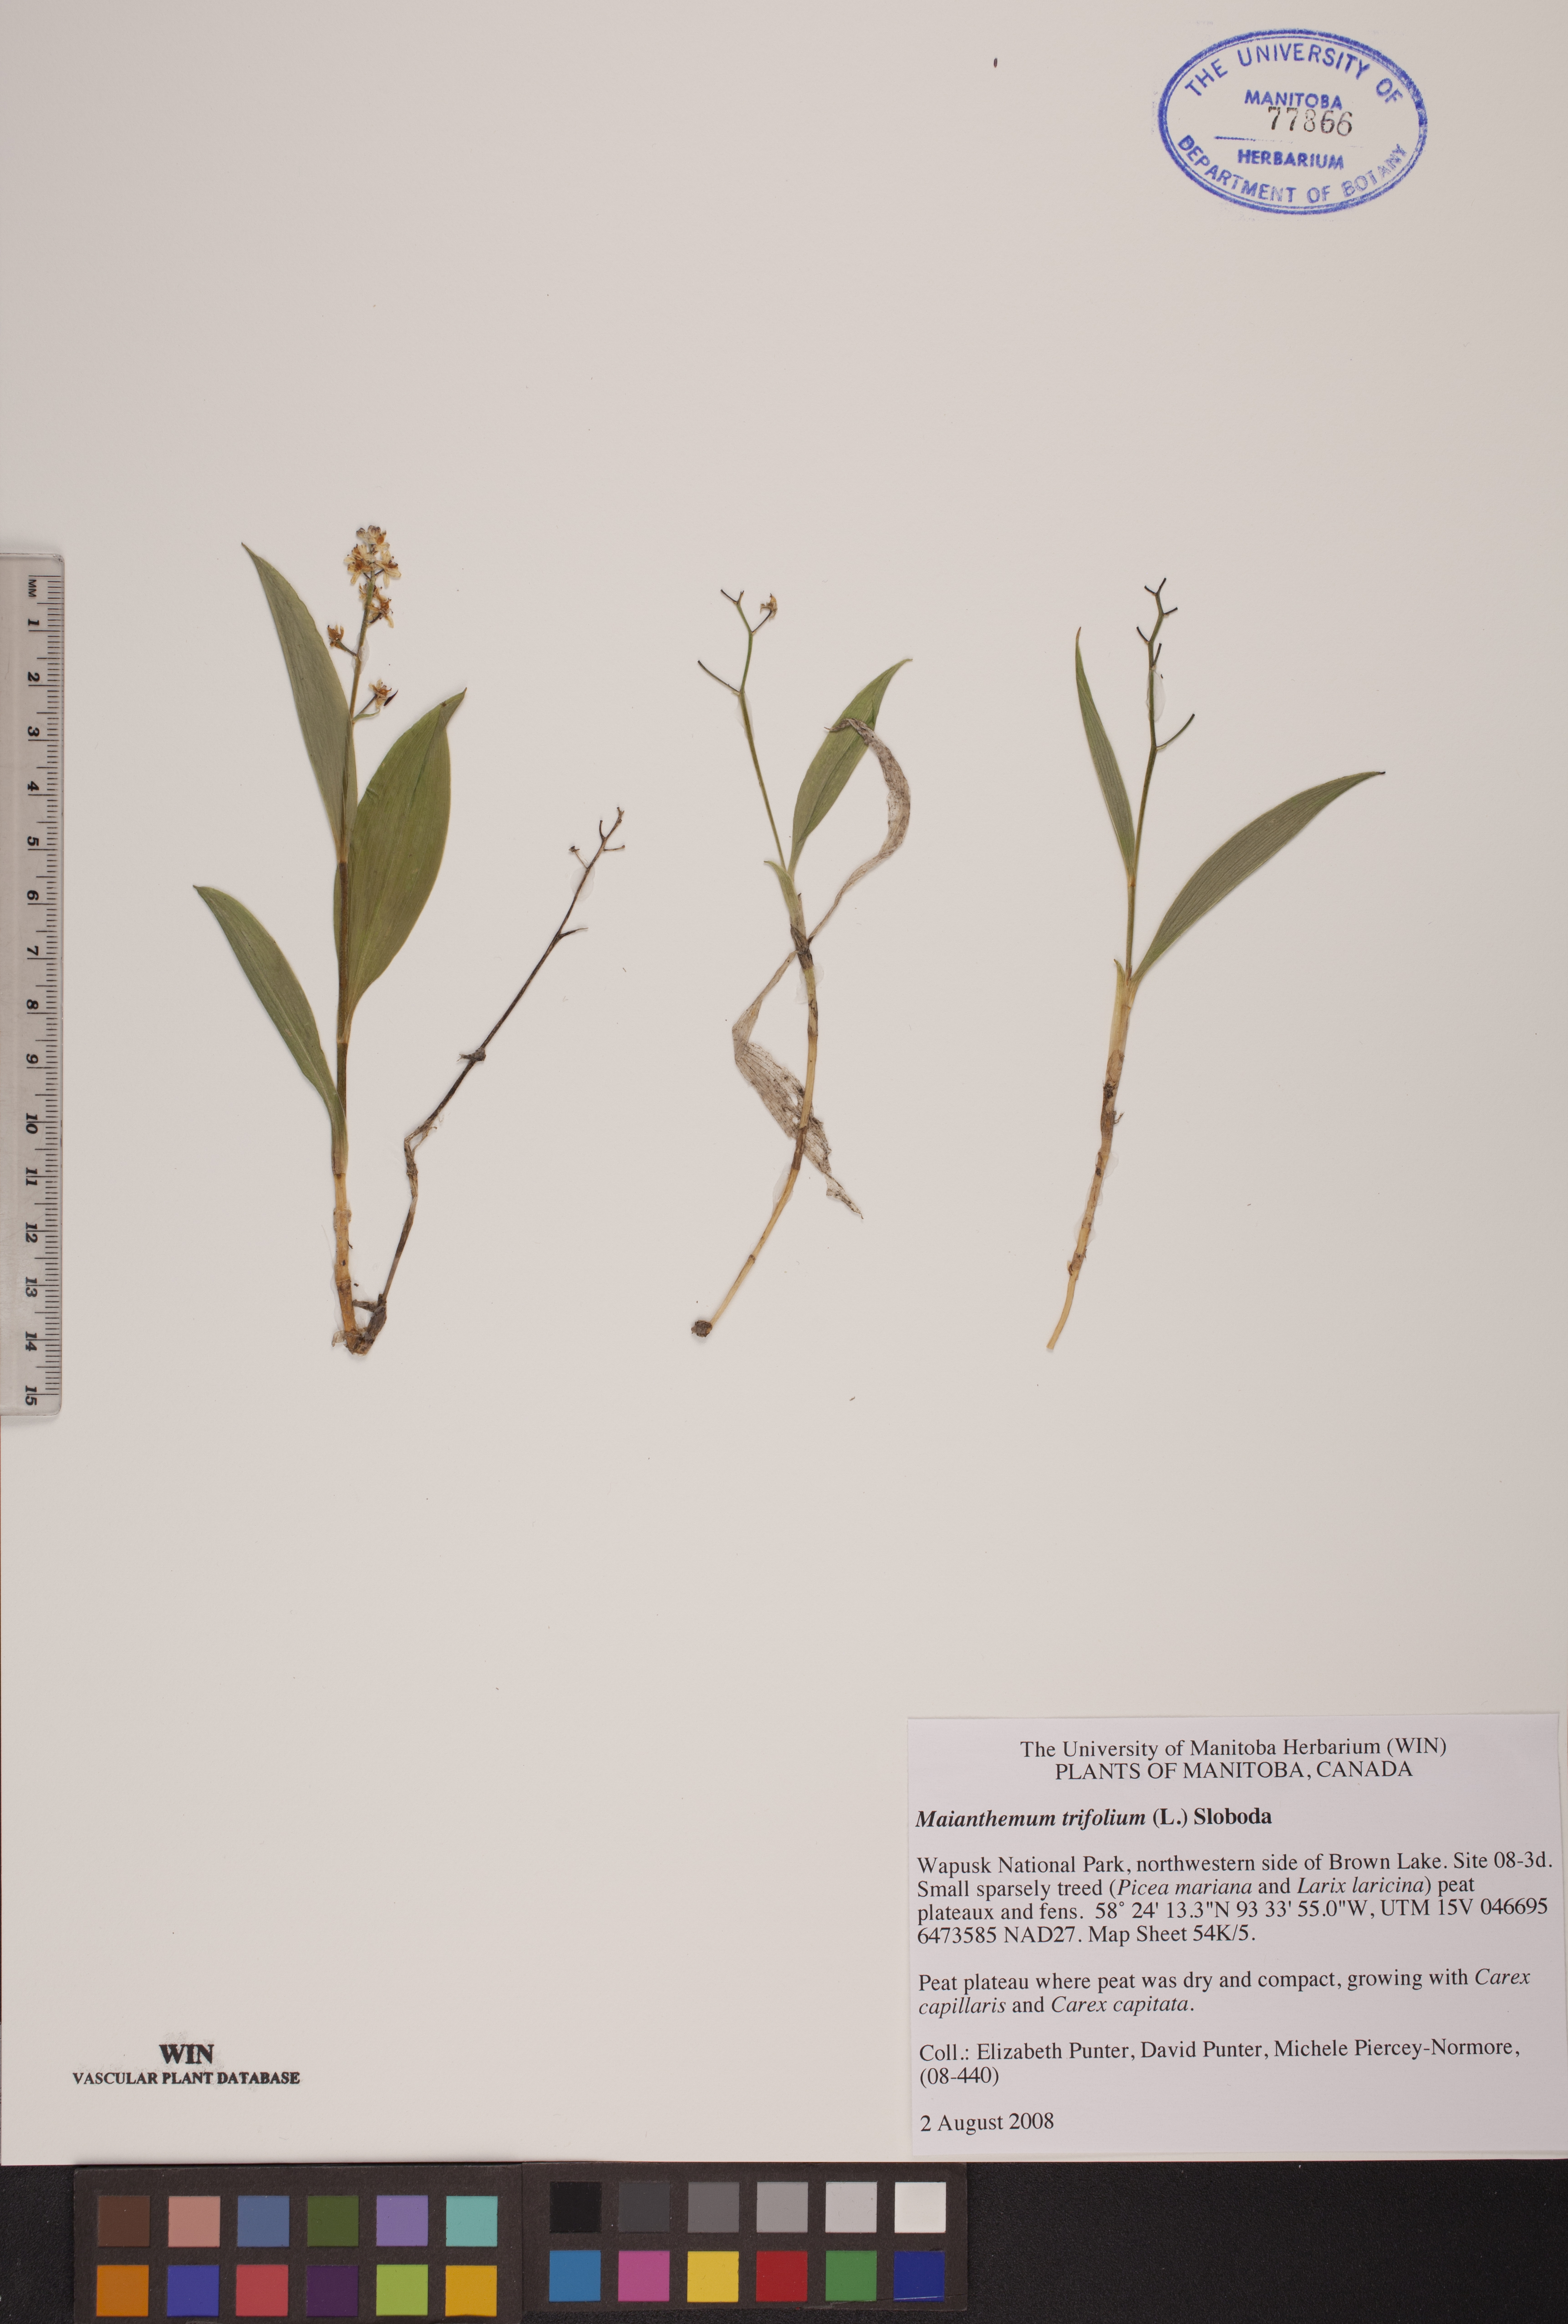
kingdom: Plantae
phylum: Tracheophyta
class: Liliopsida
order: Asparagales
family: Asparagaceae
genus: Maianthemum
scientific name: Maianthemum trifolium
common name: Swamp false solomon's seal
